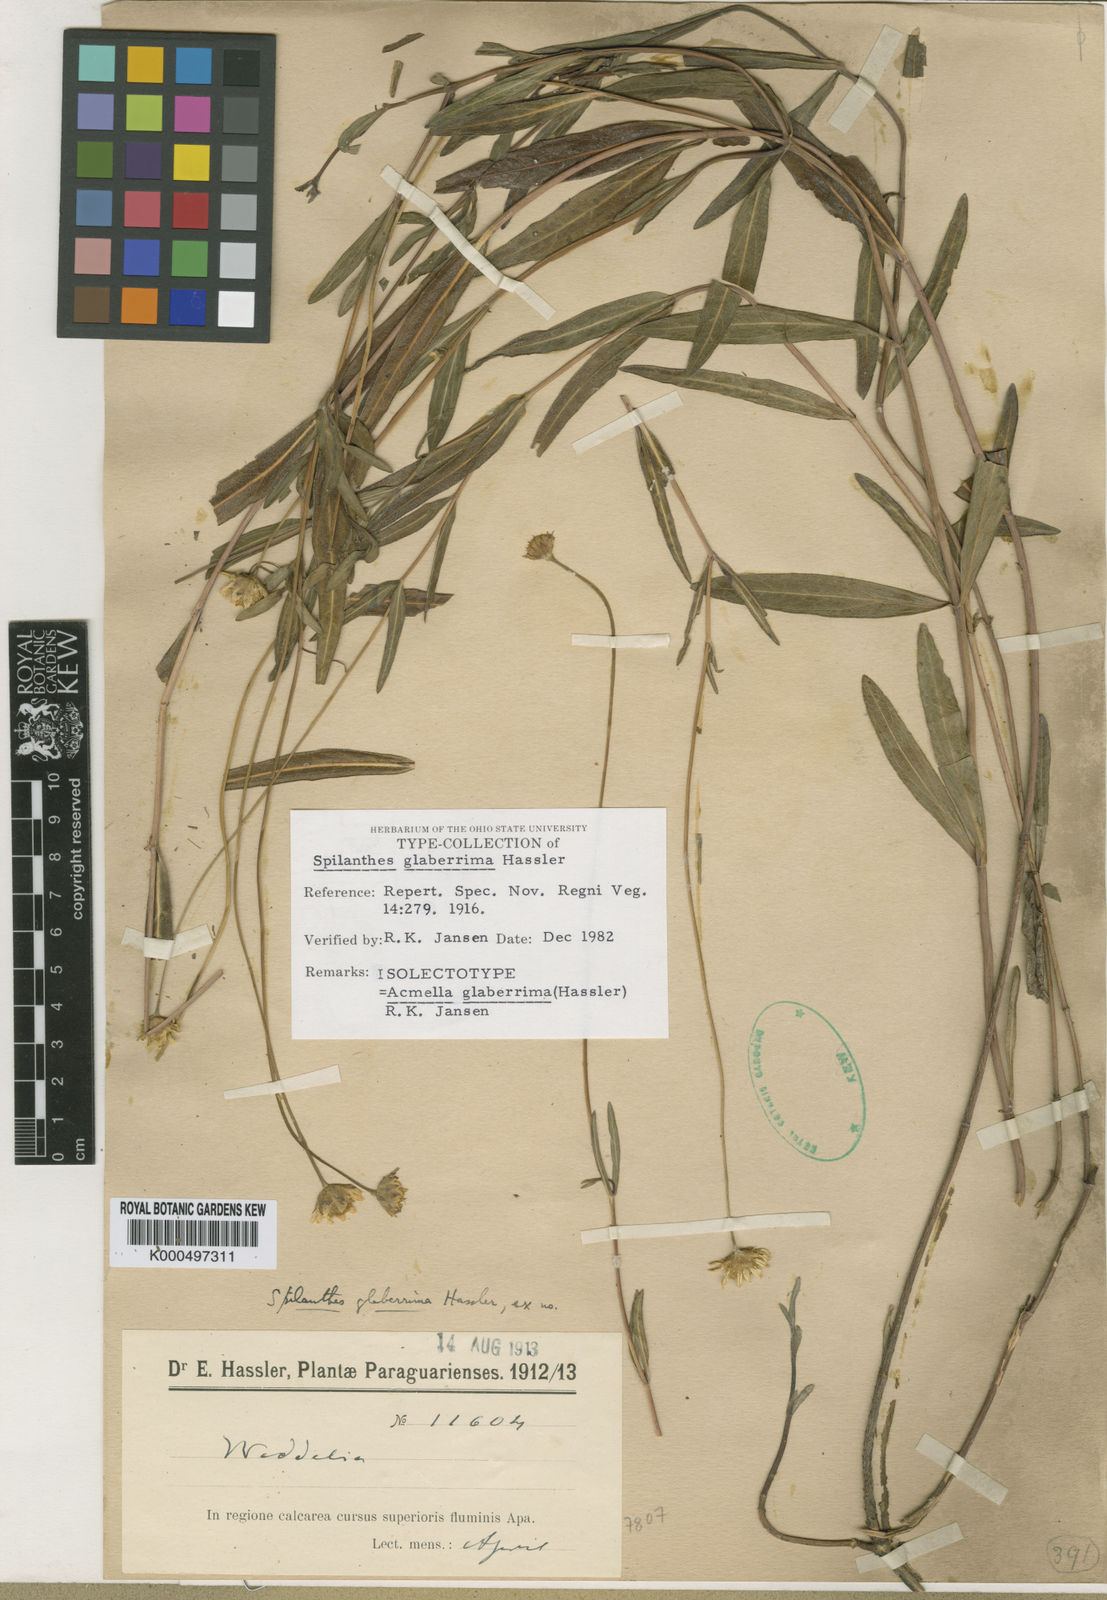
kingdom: Plantae
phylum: Tracheophyta
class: Magnoliopsida
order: Asterales
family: Asteraceae
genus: Acmella
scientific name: Acmella glaberrima
